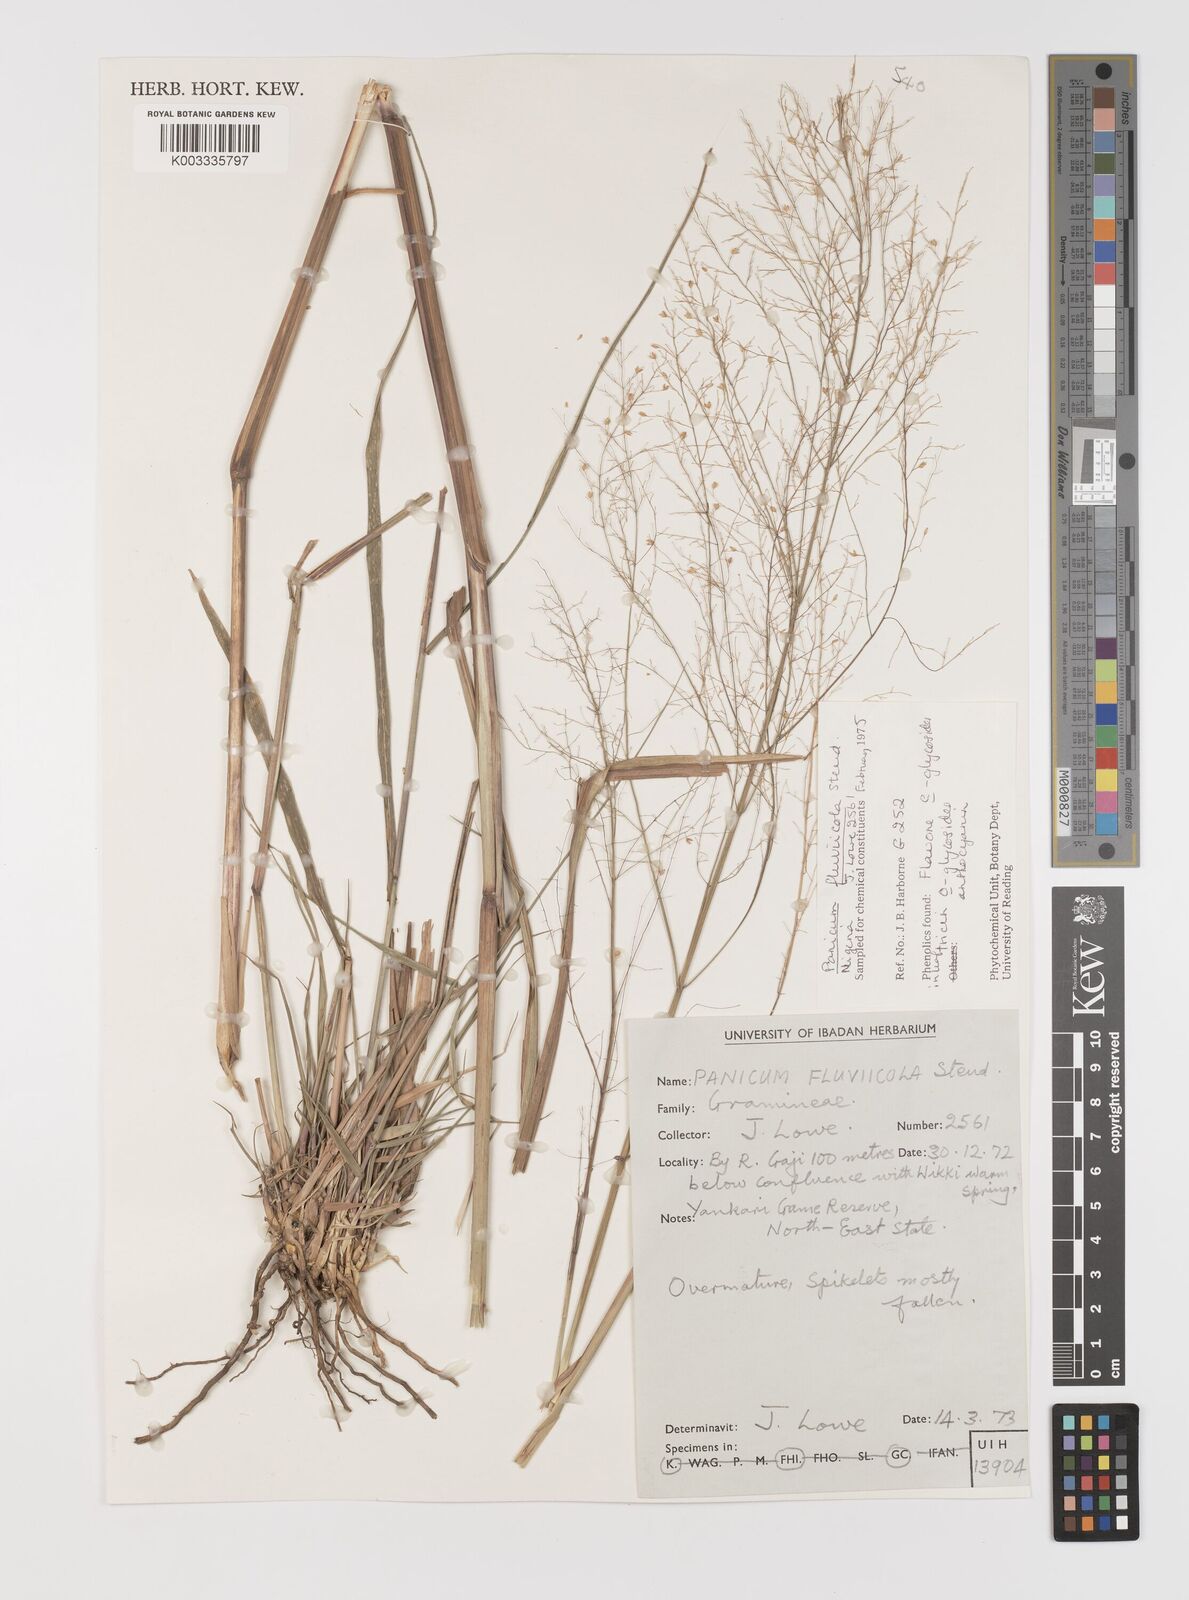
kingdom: Plantae
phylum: Tracheophyta
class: Liliopsida
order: Poales
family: Poaceae
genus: Panicum
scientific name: Panicum fluviicola
